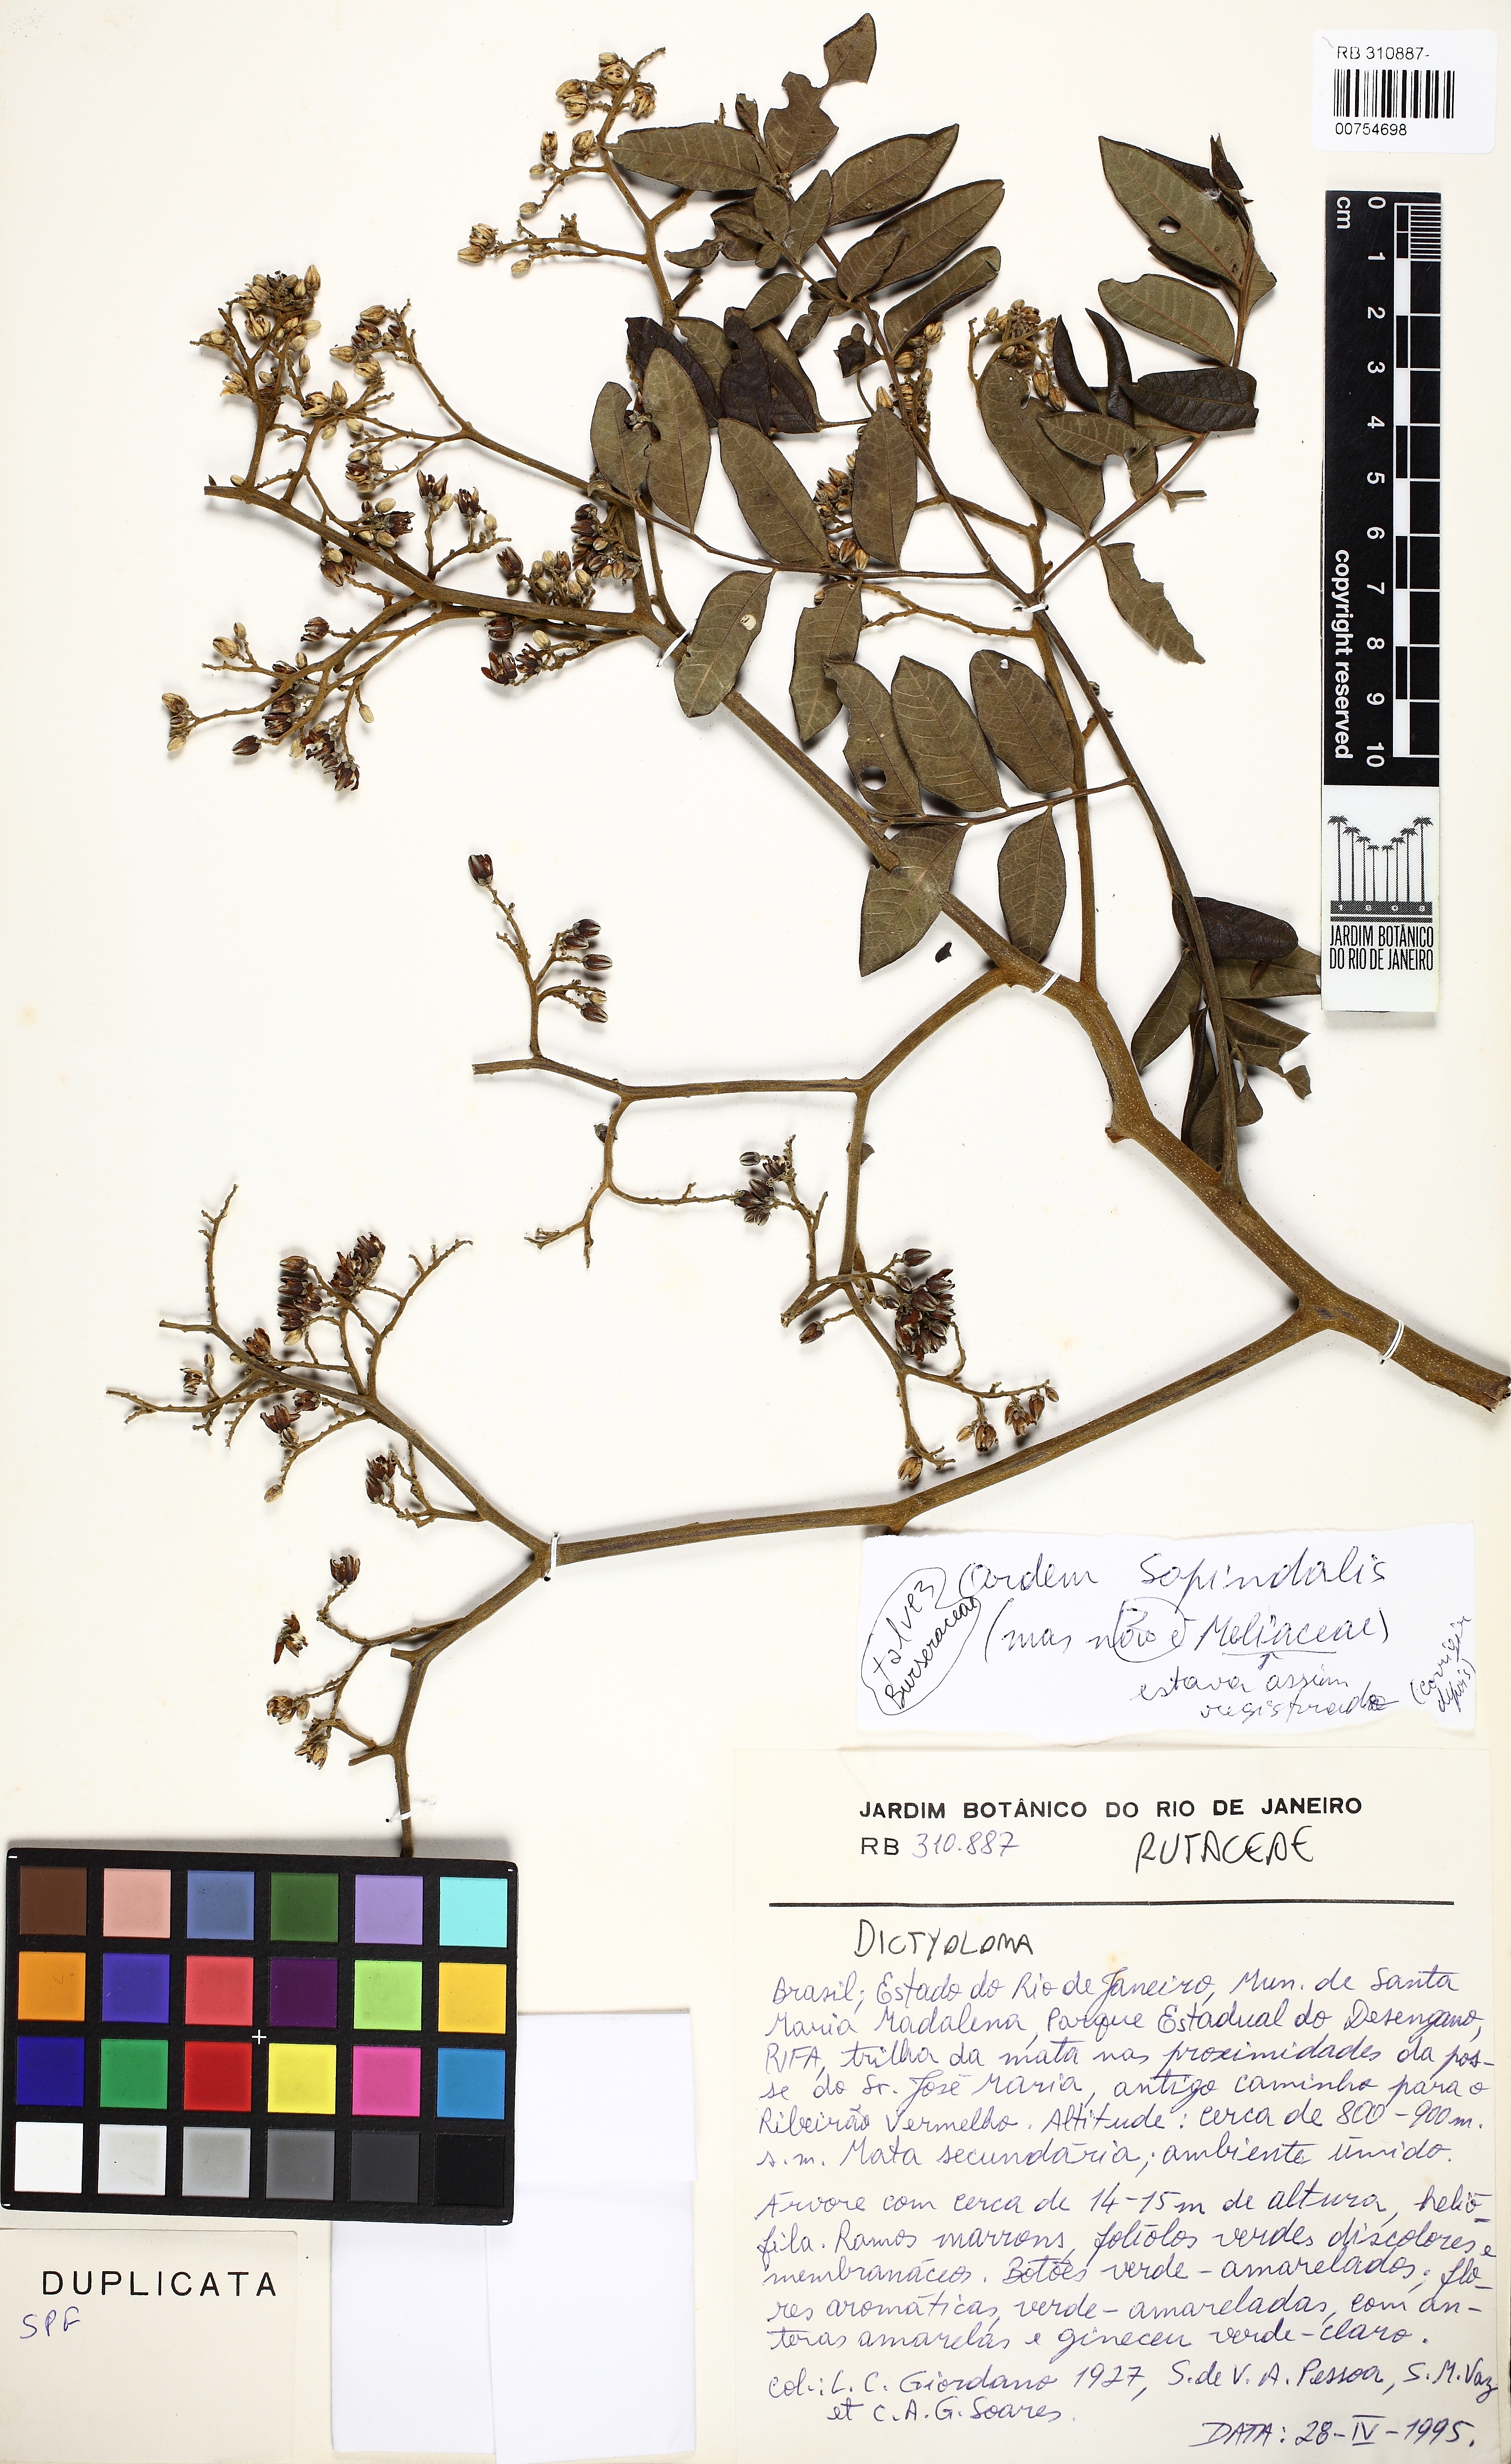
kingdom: Plantae
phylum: Tracheophyta
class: Magnoliopsida
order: Sapindales
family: Rutaceae
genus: Dictyoloma
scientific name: Dictyoloma vandellianum
